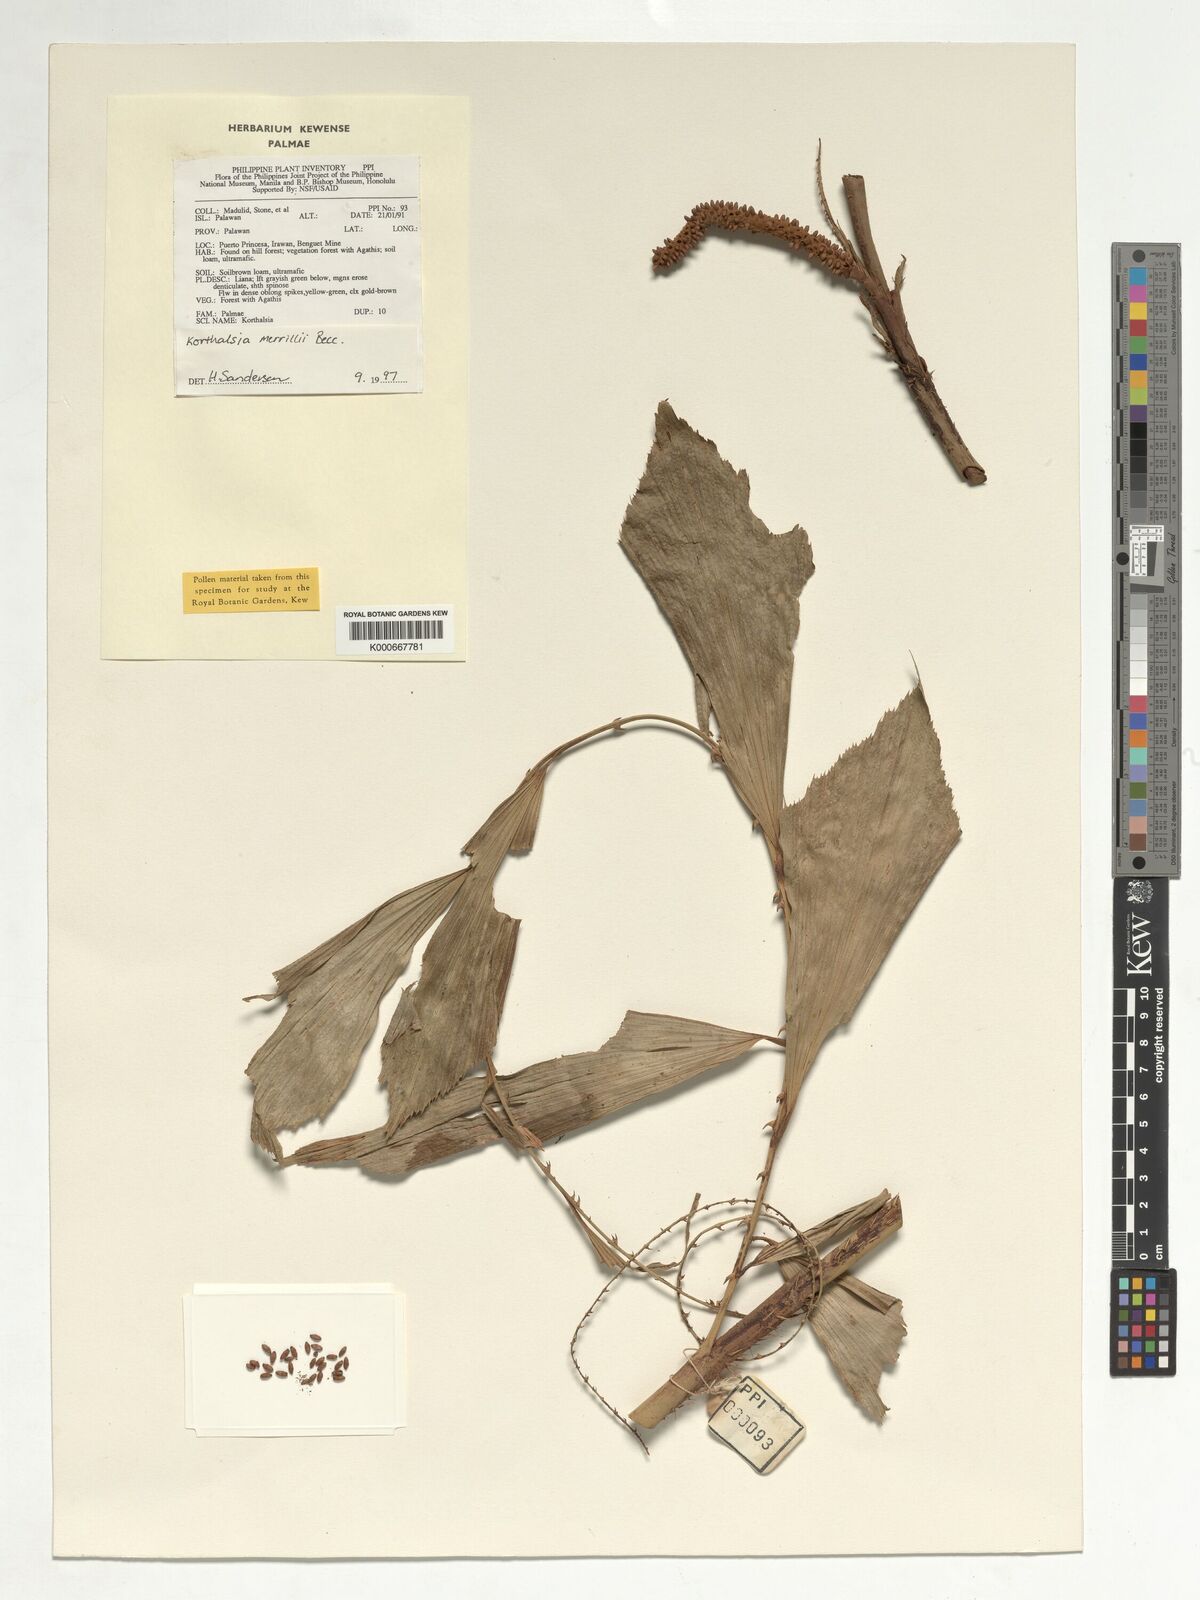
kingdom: Plantae
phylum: Tracheophyta
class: Liliopsida
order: Arecales
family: Arecaceae
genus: Korthalsia
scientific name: Korthalsia merrillii
